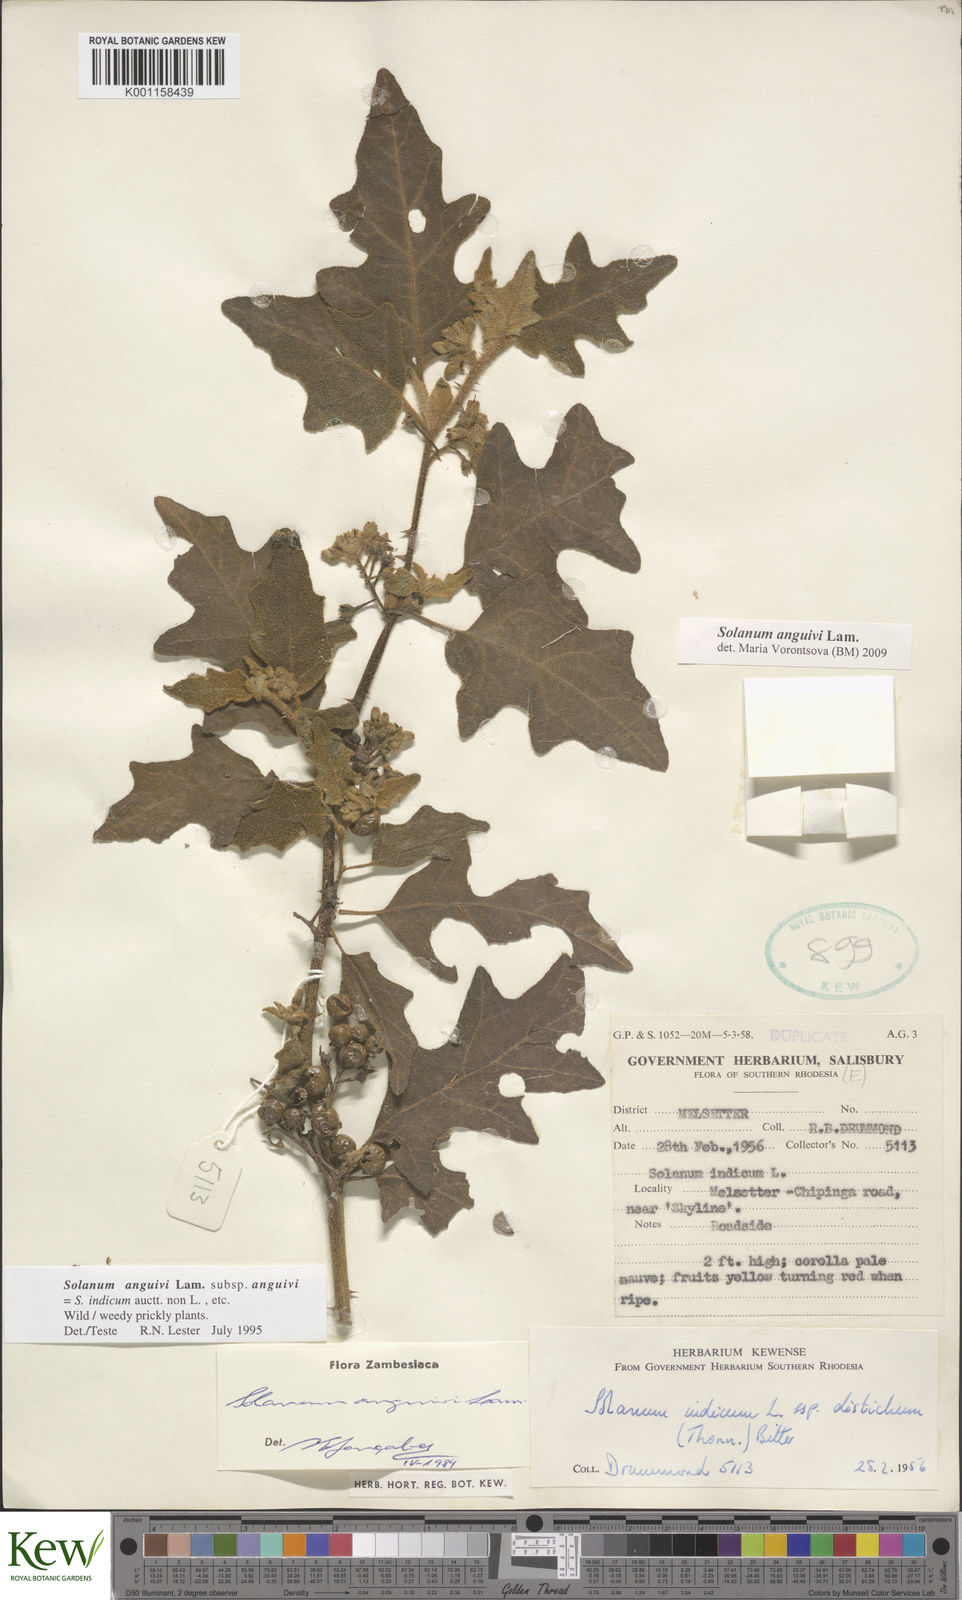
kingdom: Plantae
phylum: Tracheophyta
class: Magnoliopsida
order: Solanales
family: Solanaceae
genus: Solanum
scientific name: Solanum anguivi
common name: Forest bitterberry
